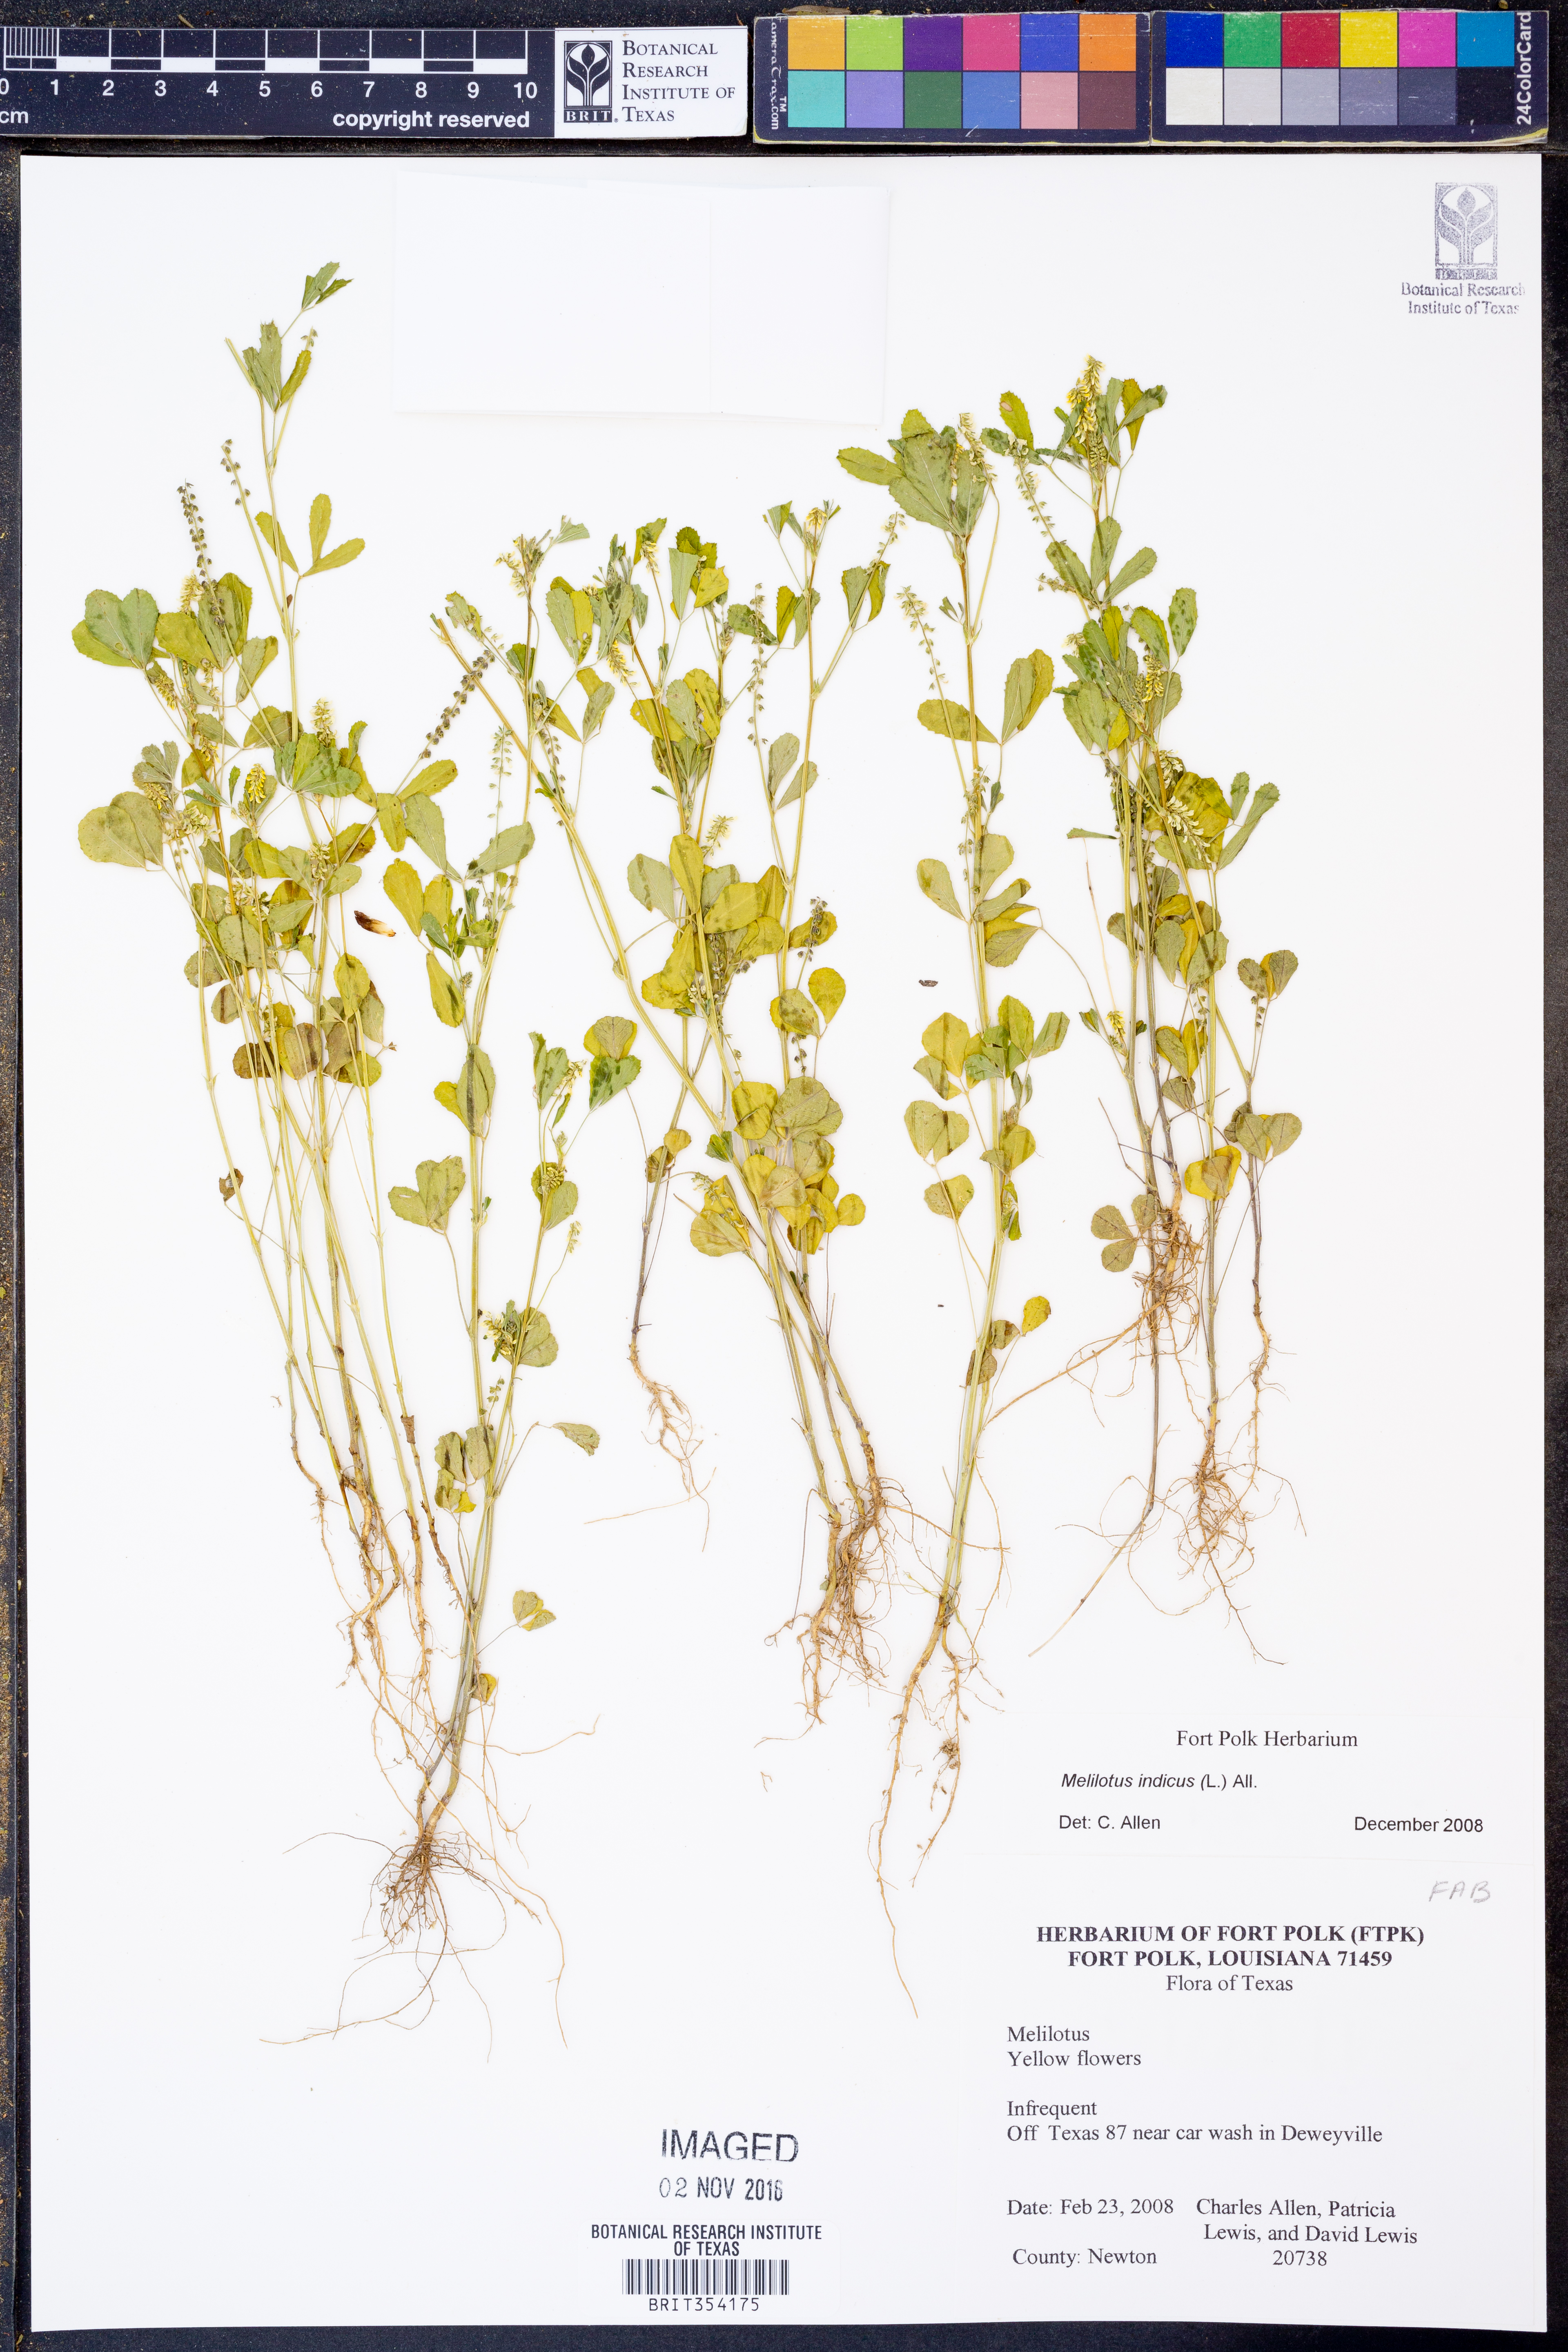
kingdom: Plantae
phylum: Tracheophyta
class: Magnoliopsida
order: Fabales
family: Fabaceae
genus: Melilotus
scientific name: Melilotus indicus
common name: Small melilot
